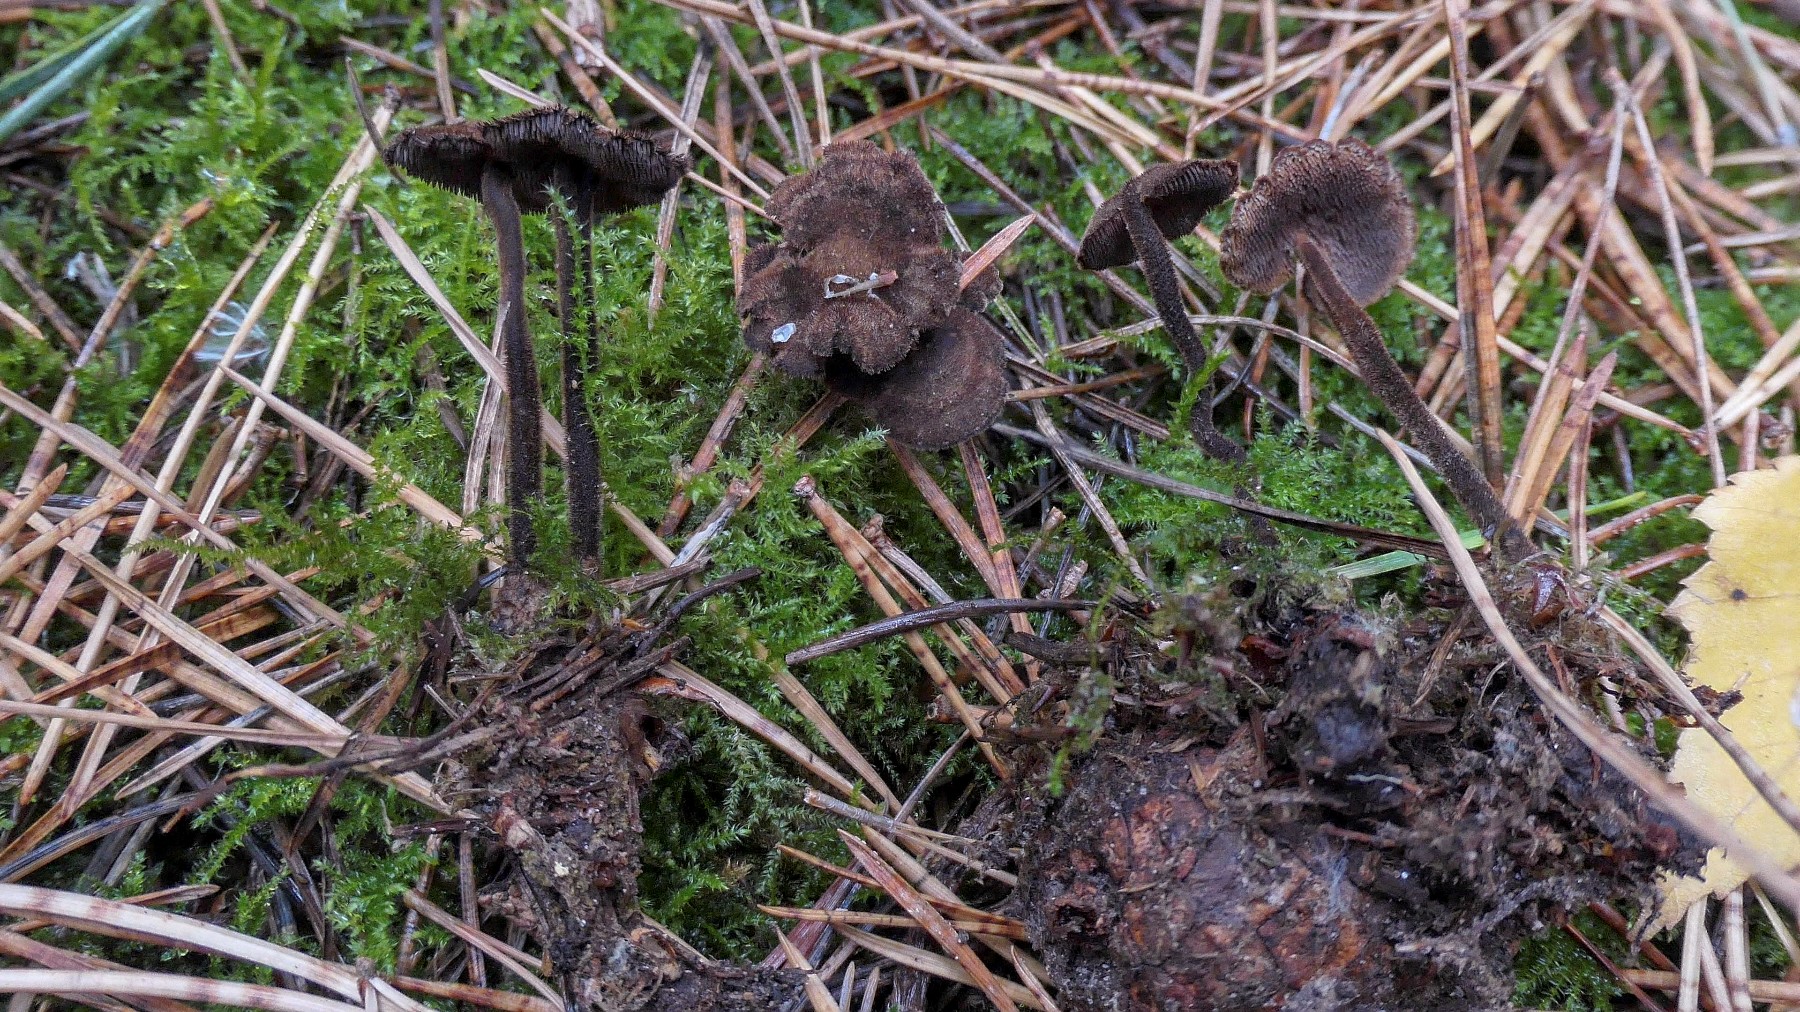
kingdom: Fungi
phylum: Basidiomycota
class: Agaricomycetes
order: Russulales
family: Auriscalpiaceae
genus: Auriscalpium
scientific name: Auriscalpium vulgare
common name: koglepigsvamp
